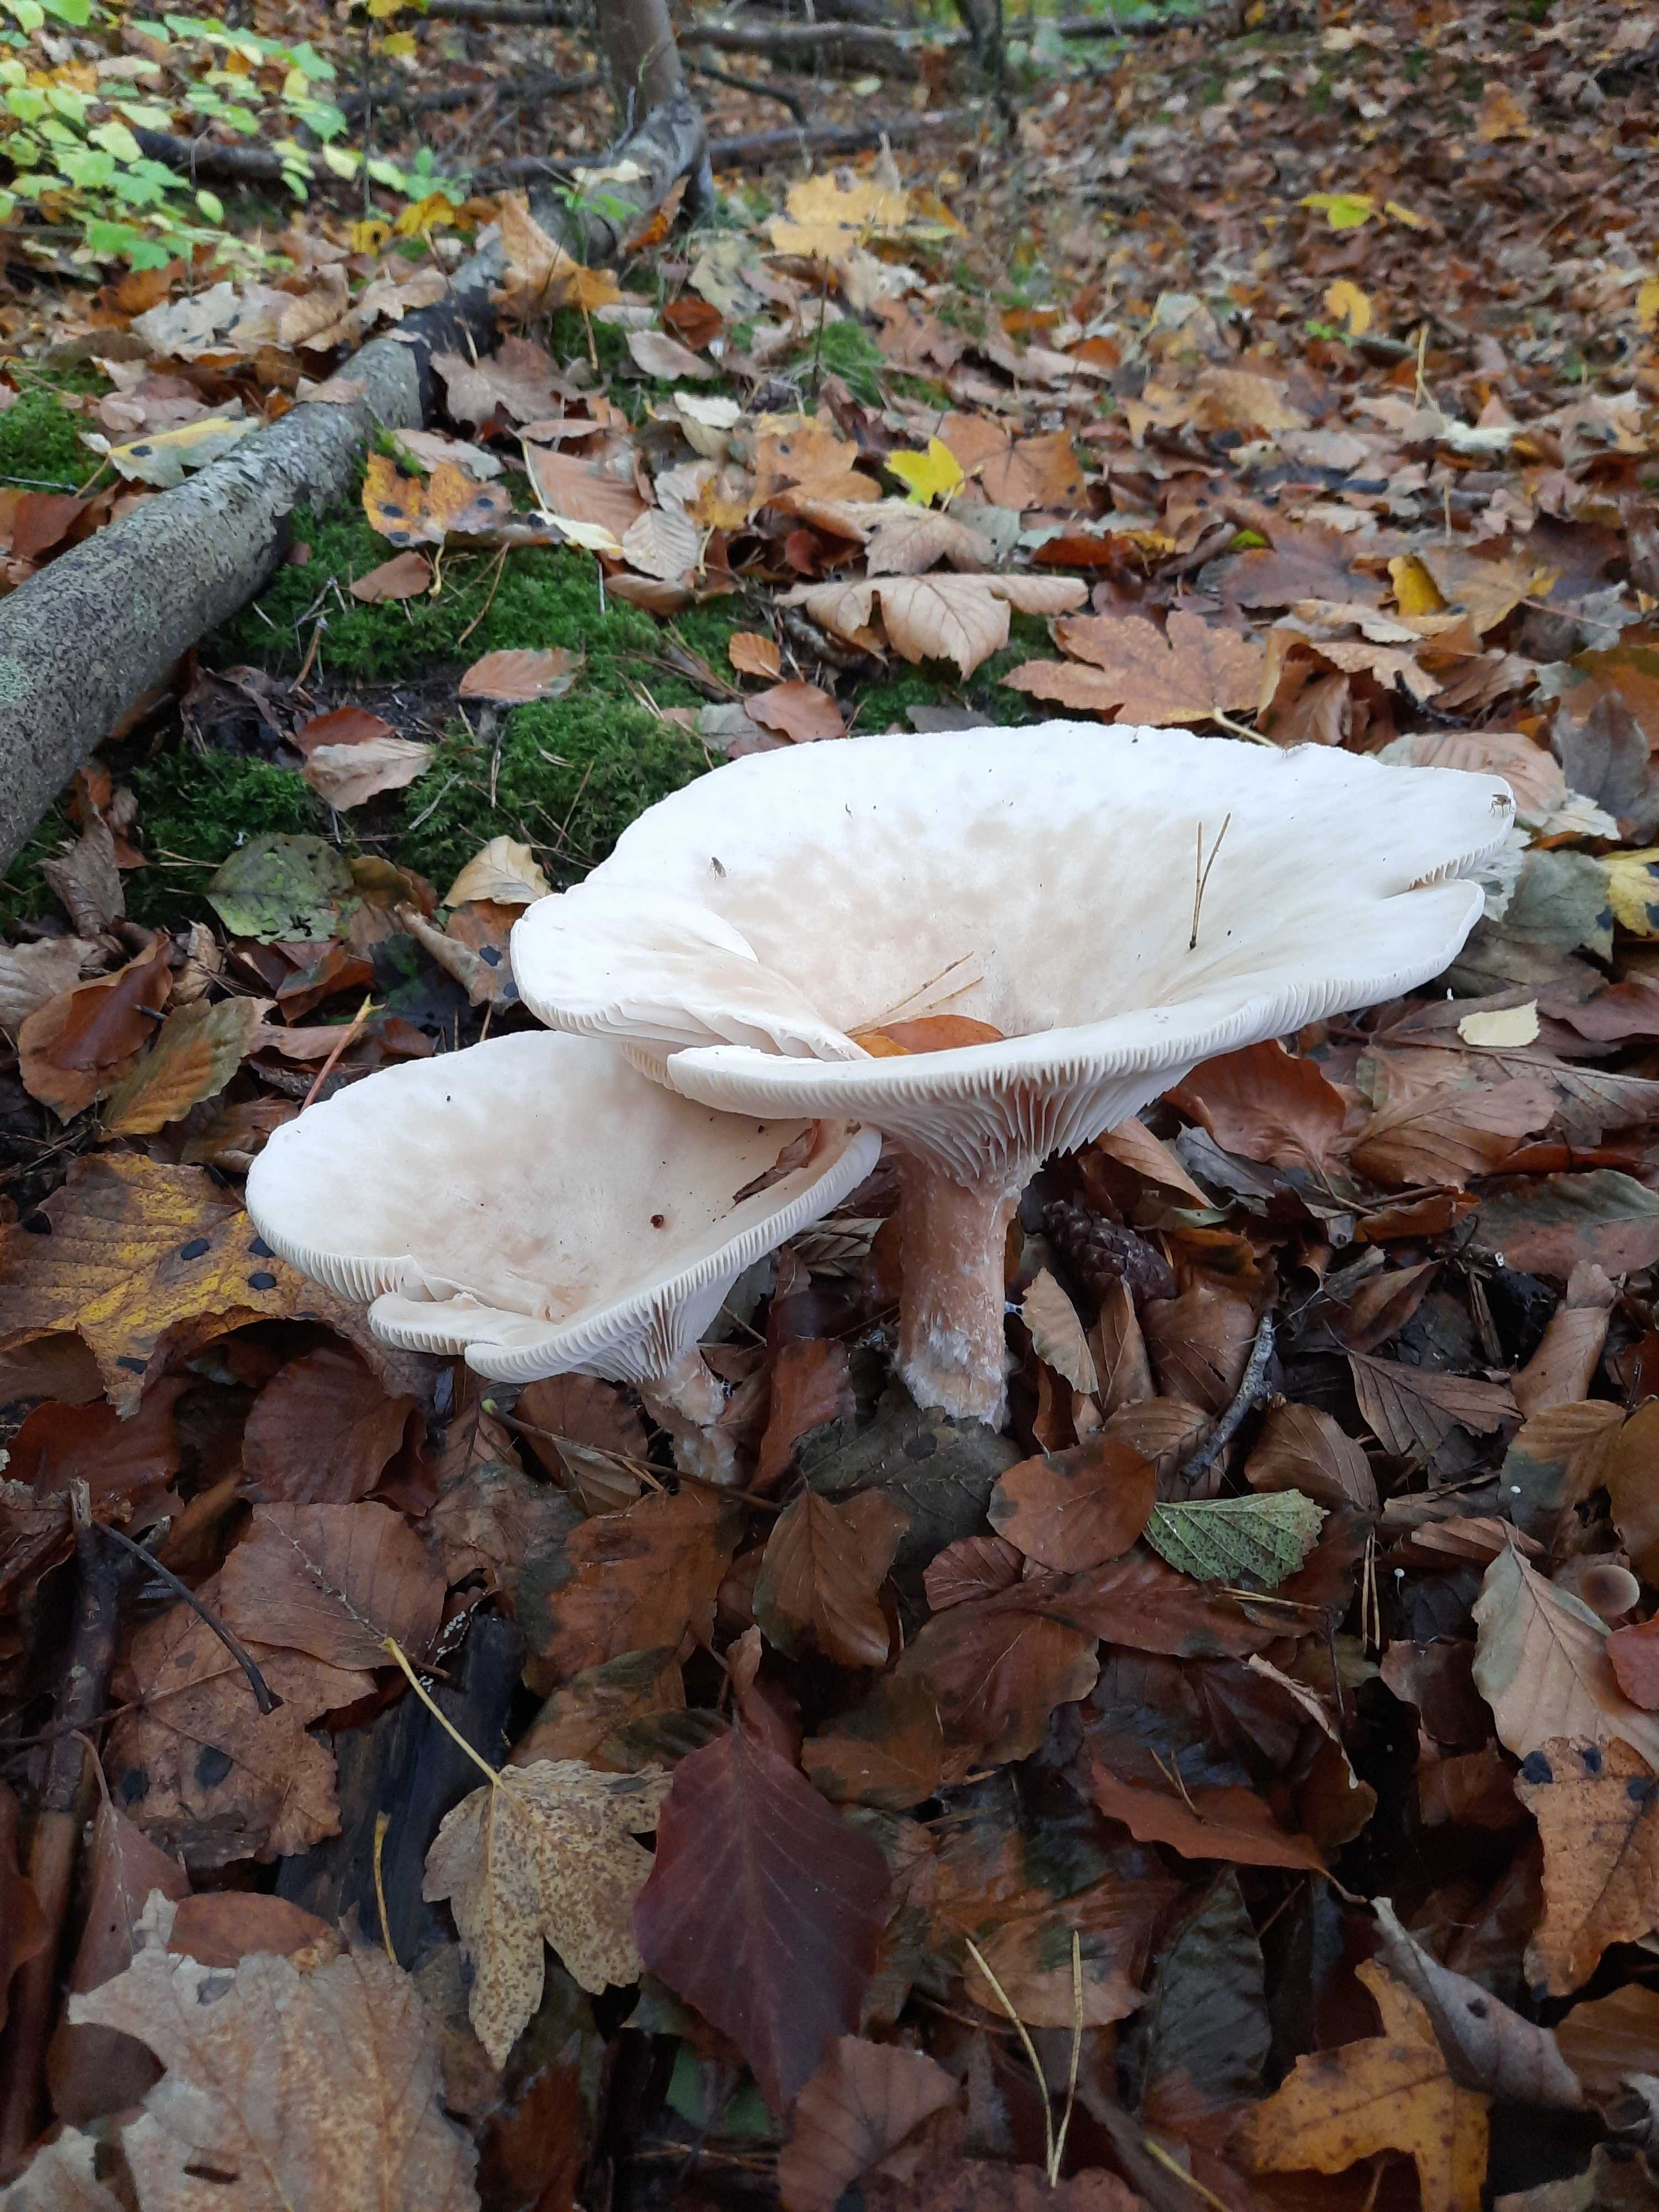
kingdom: Fungi
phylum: Basidiomycota
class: Agaricomycetes
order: Agaricales
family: Tricholomataceae
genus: Infundibulicybe
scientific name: Infundibulicybe geotropa
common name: stor tragthat
